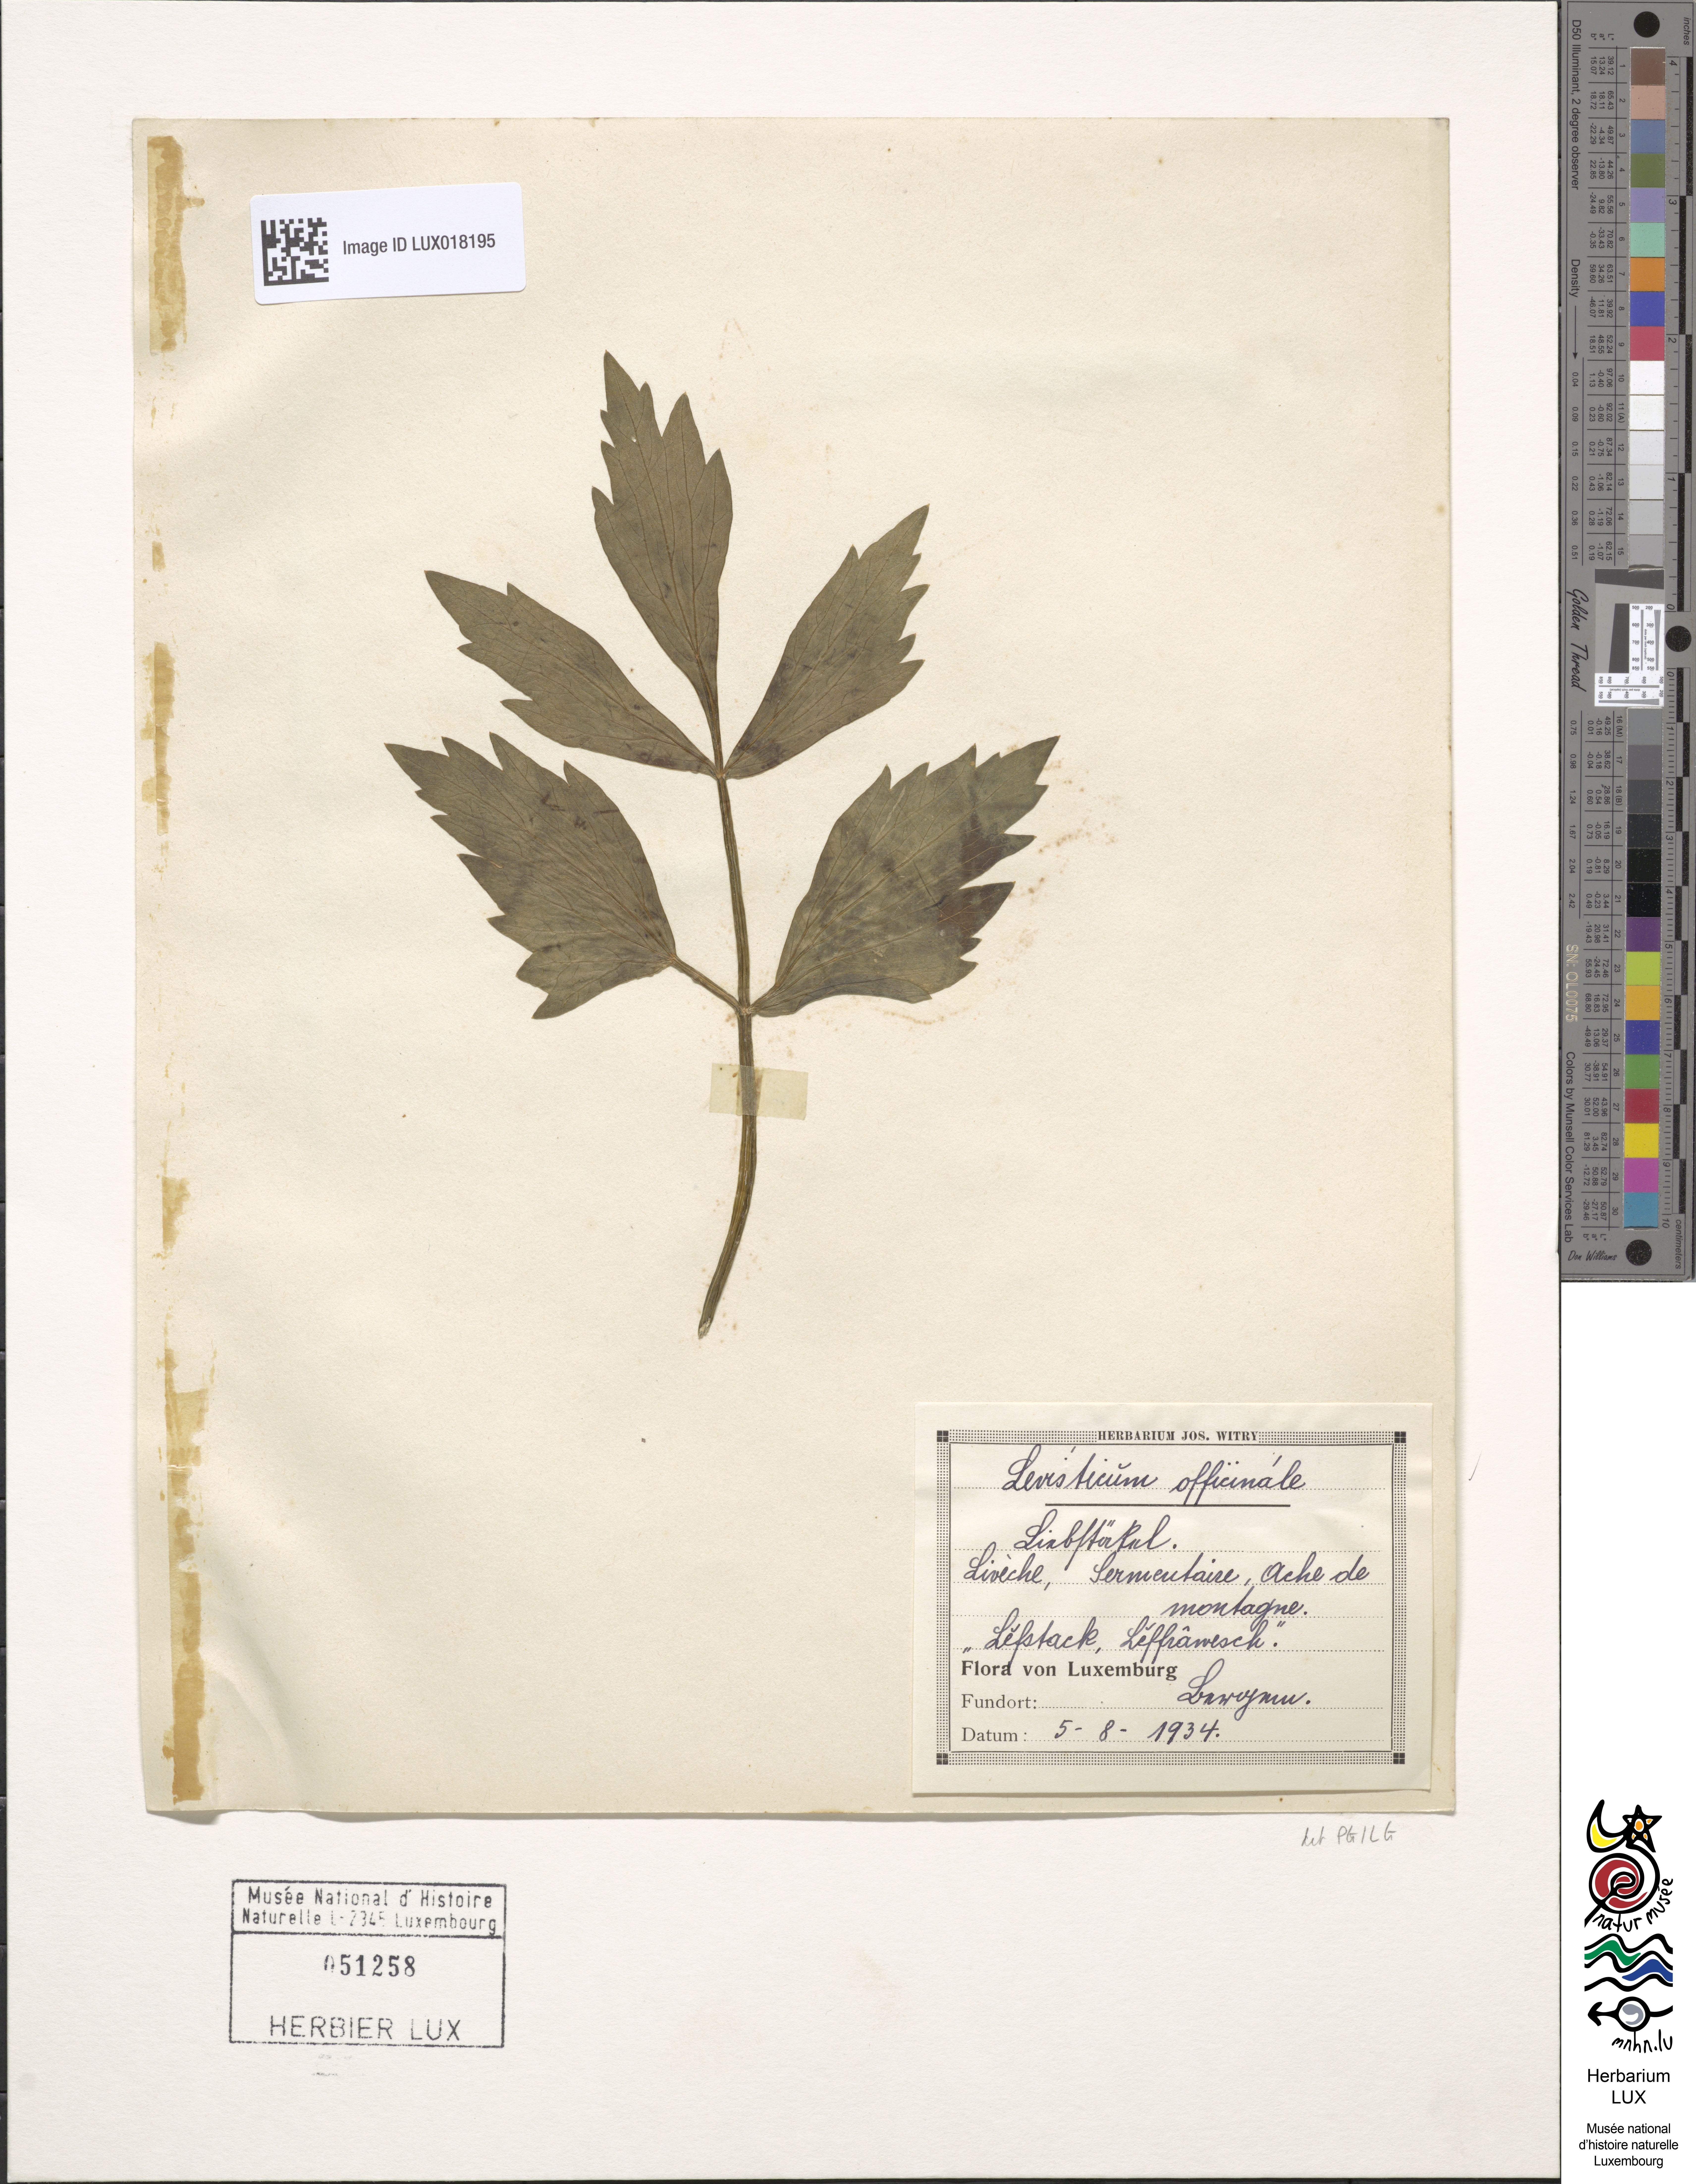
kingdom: Plantae
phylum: Tracheophyta
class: Magnoliopsida
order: Apiales
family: Apiaceae
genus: Levisticum
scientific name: Levisticum officinale
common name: Lovage
